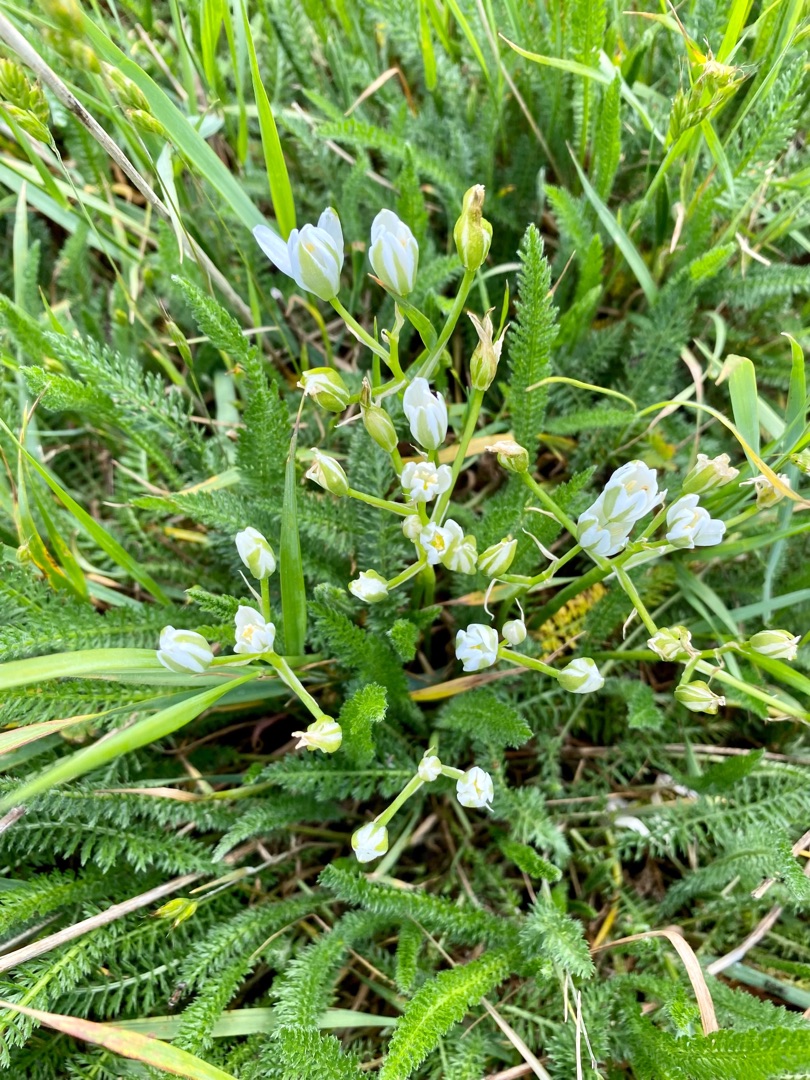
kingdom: Plantae
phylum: Tracheophyta
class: Liliopsida
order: Asparagales
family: Asparagaceae
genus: Ornithogalum
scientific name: Ornithogalum umbellatum
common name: Kost-fuglemælk
